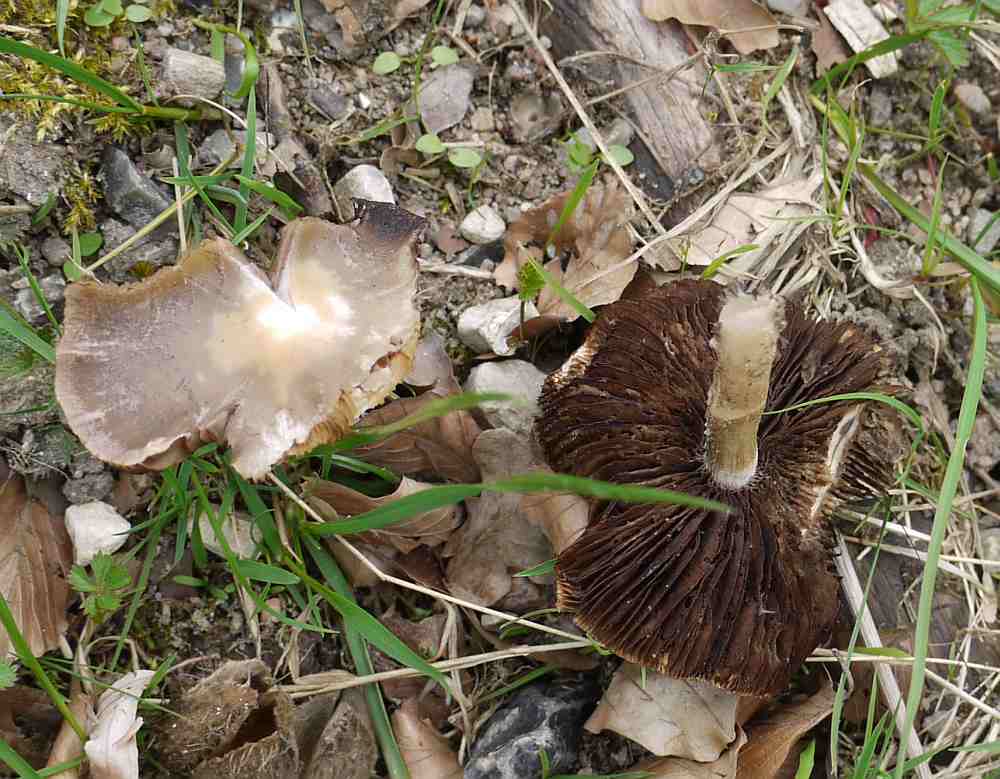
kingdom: Fungi
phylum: Basidiomycota
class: Agaricomycetes
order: Agaricales
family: Psathyrellaceae
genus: Psathyrella
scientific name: Psathyrella spadiceogrisea
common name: gråbrun mørkhat
